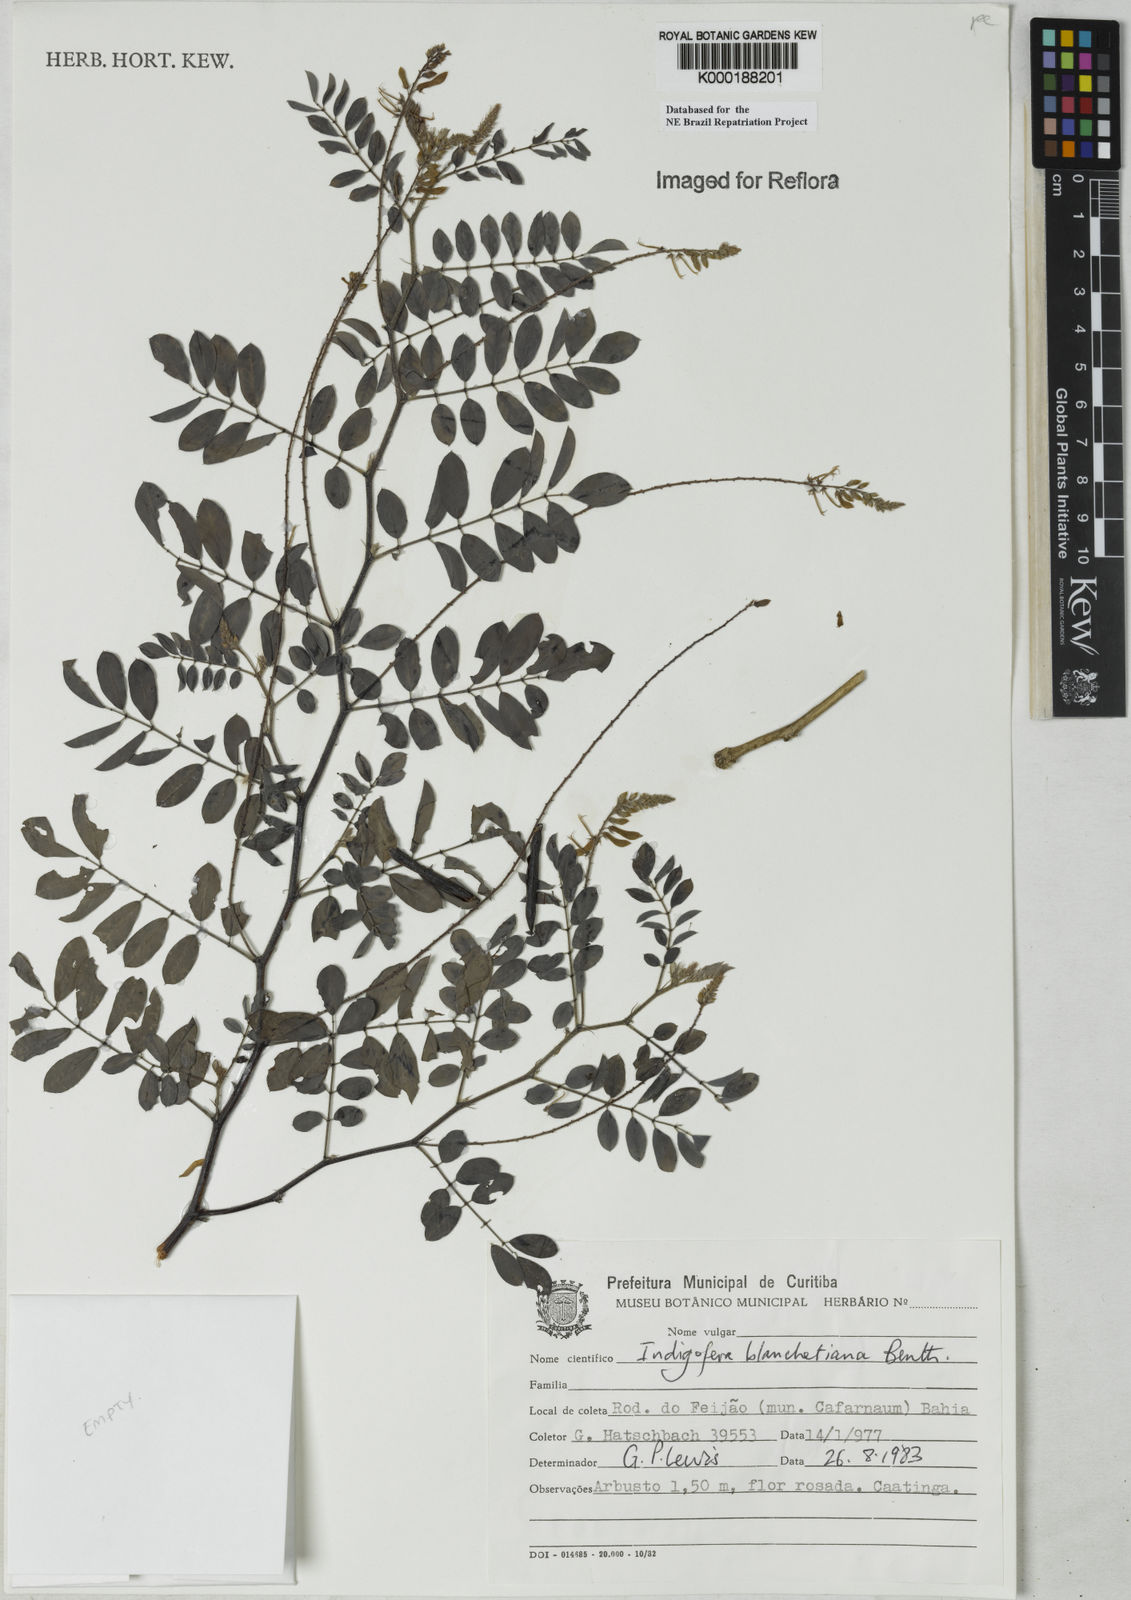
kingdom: Plantae
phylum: Tracheophyta
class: Magnoliopsida
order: Fabales
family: Fabaceae
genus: Indigofera
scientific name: Indigofera blanchetiana
